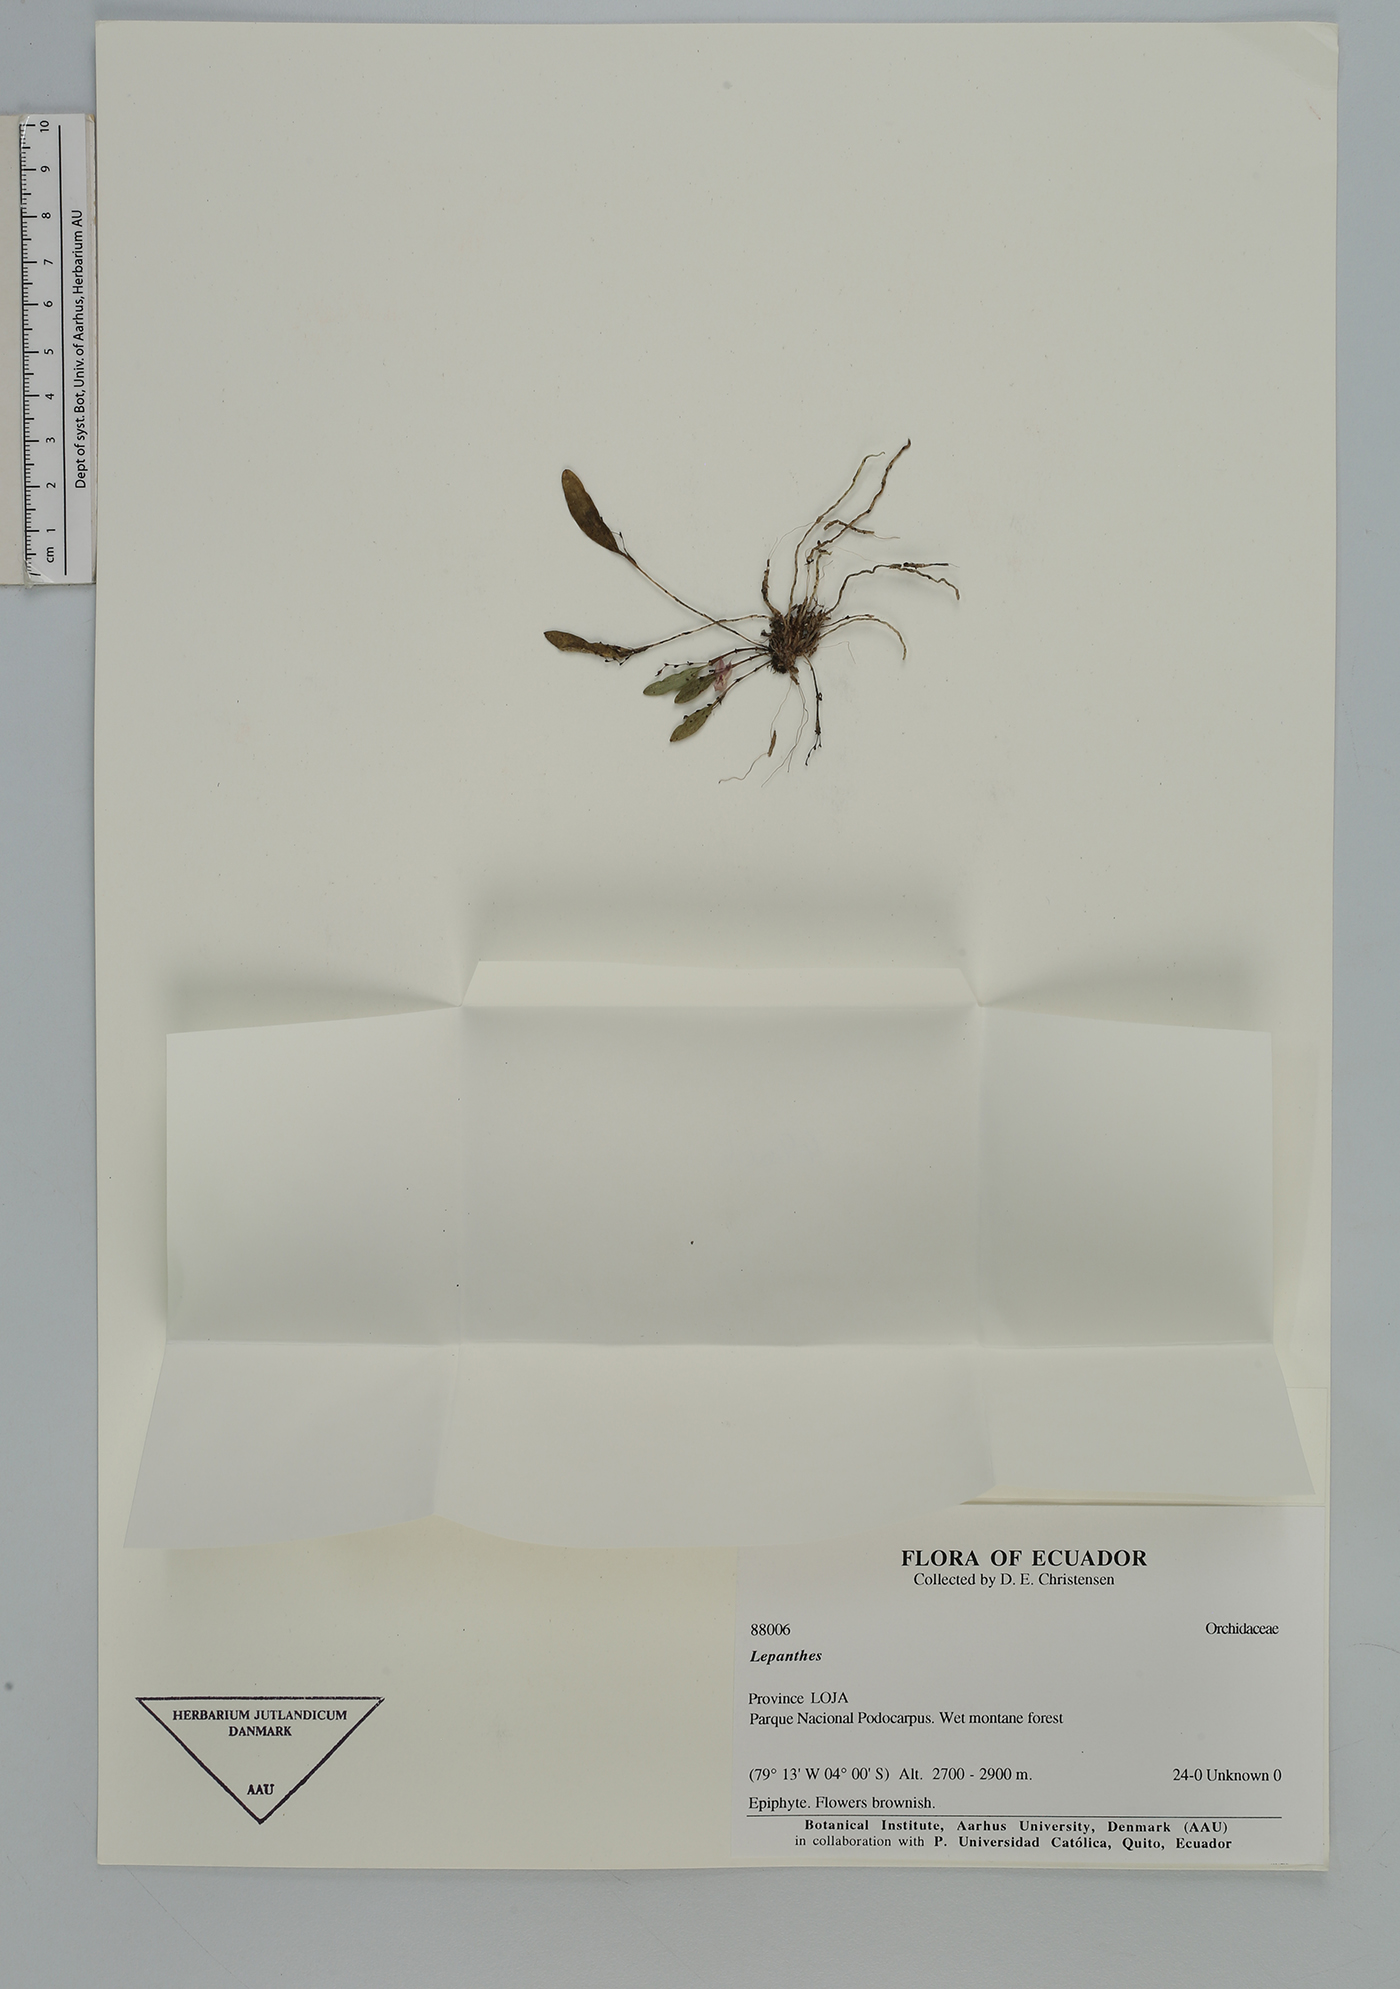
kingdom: Plantae
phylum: Tracheophyta
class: Liliopsida
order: Asparagales
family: Orchidaceae
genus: Lepanthes
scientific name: Lepanthes
